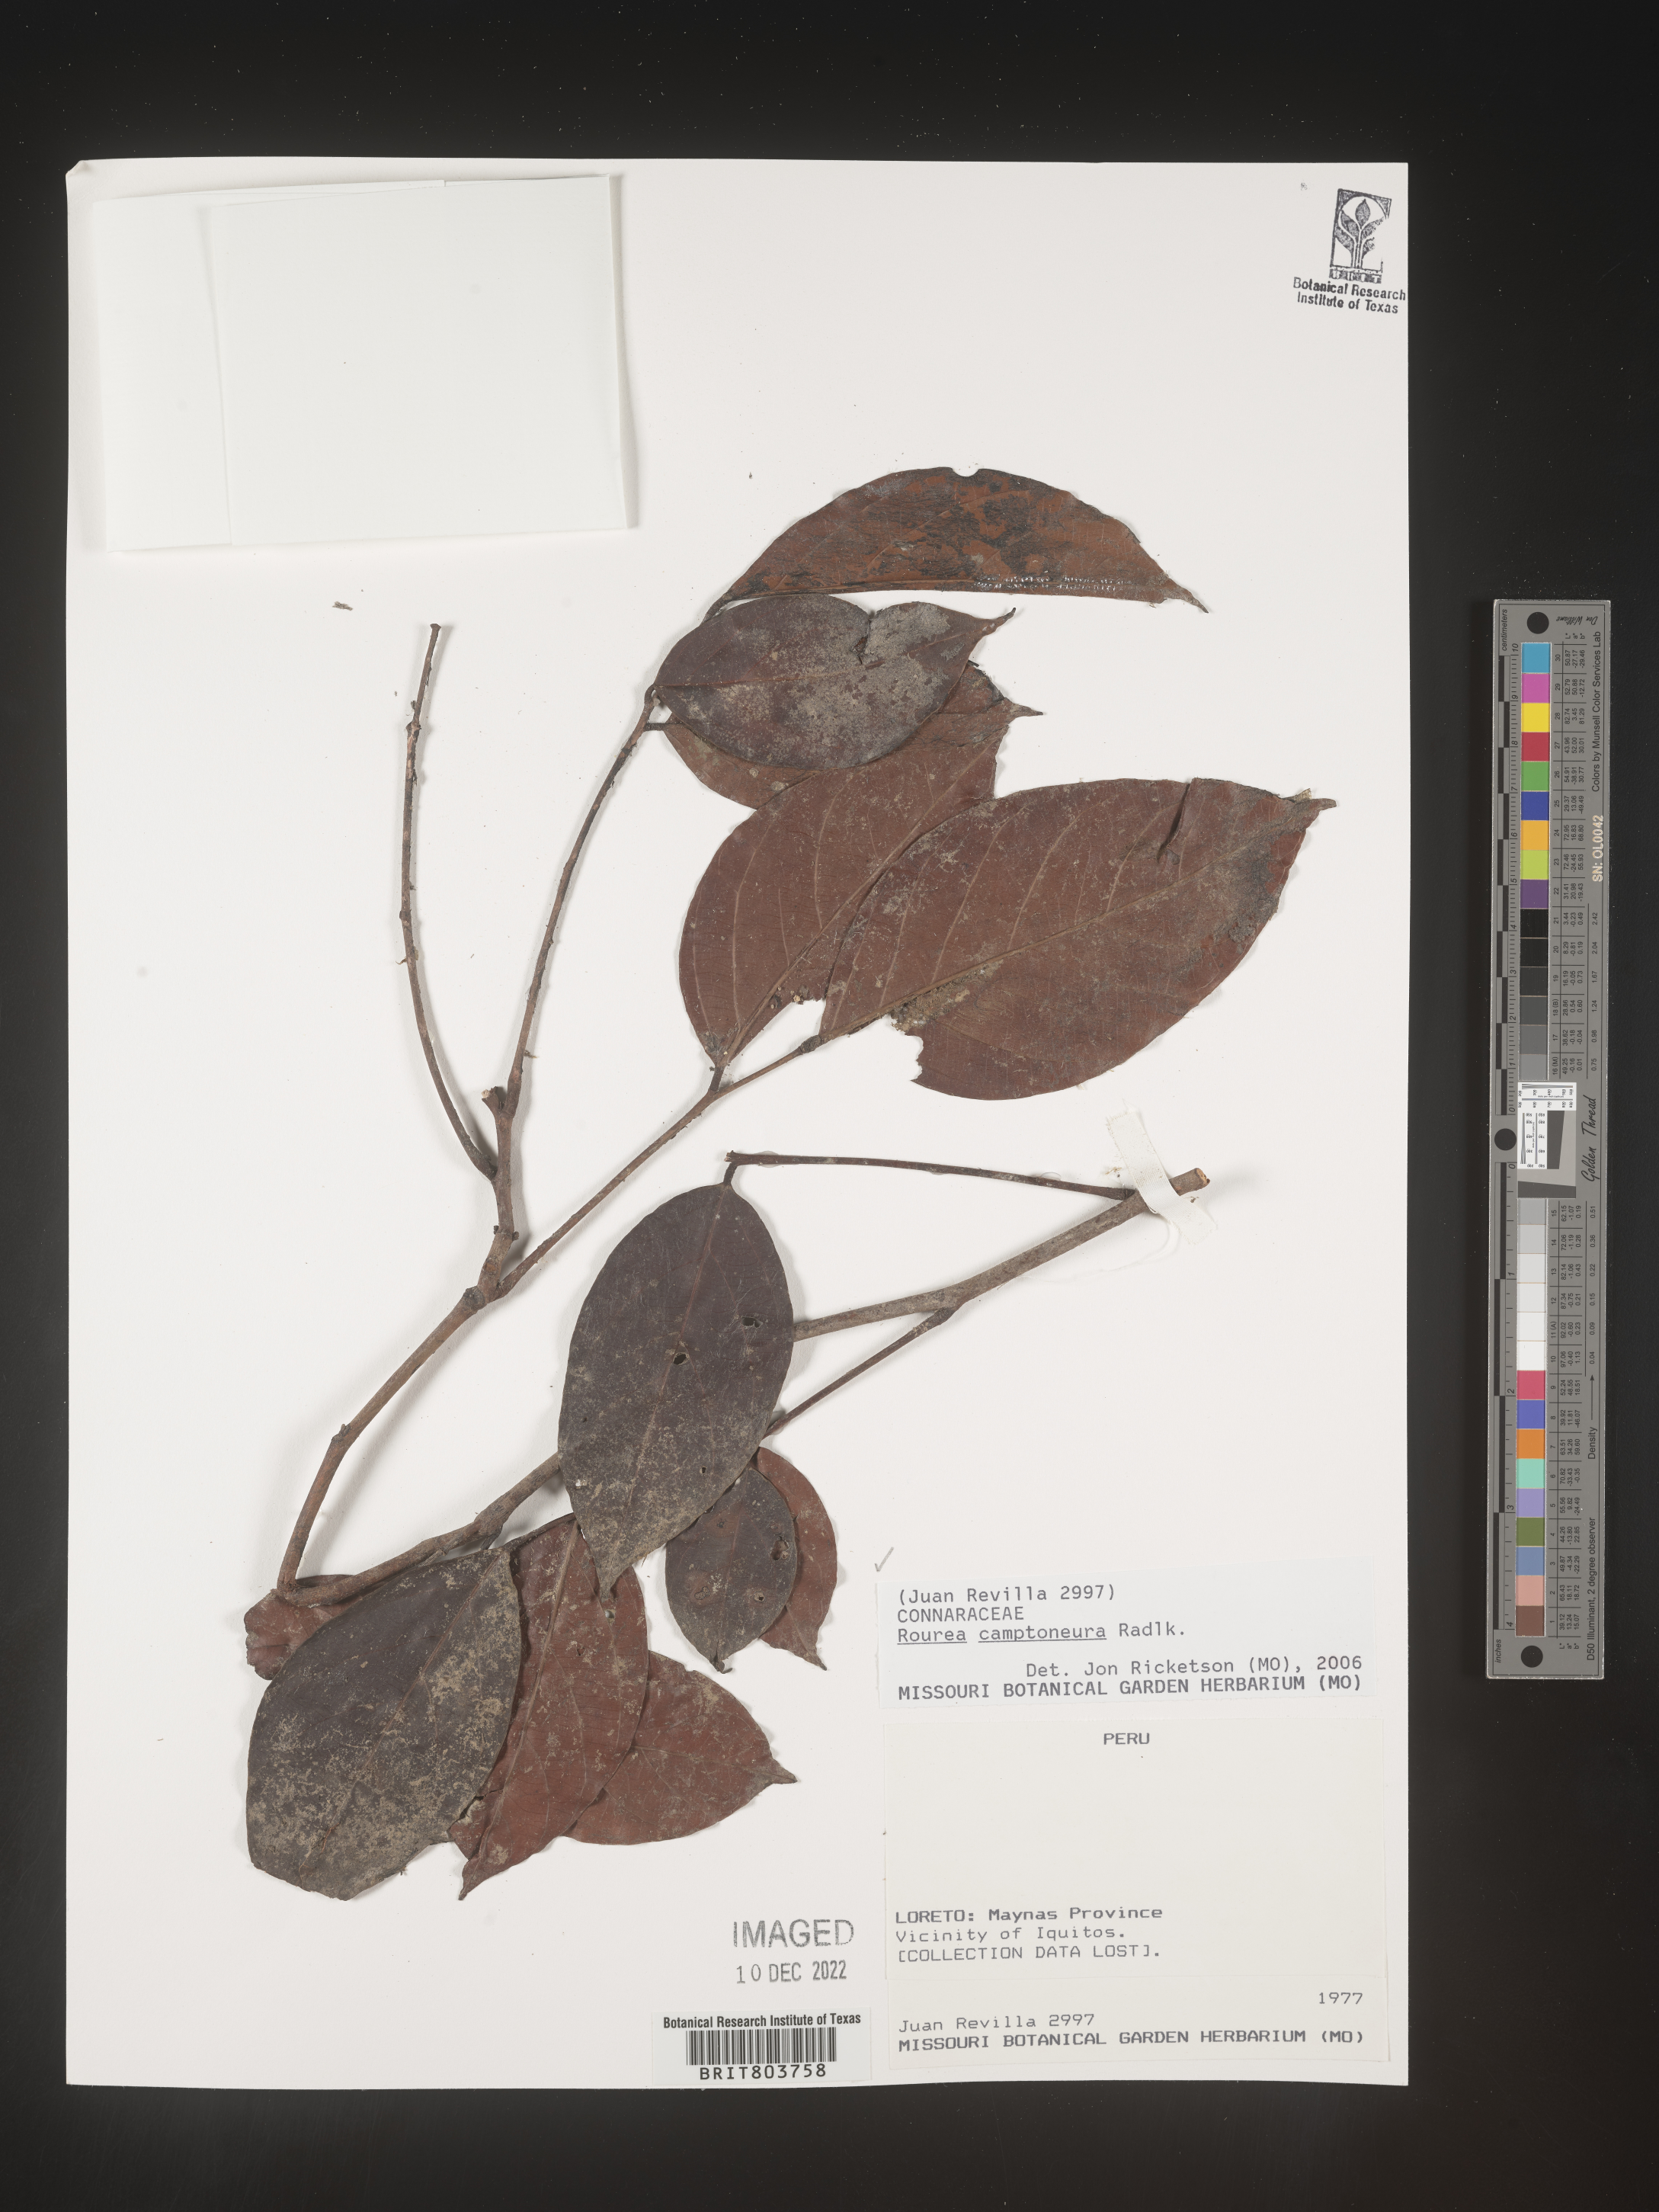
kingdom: Plantae
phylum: Tracheophyta
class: Magnoliopsida
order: Oxalidales
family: Connaraceae
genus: Rourea
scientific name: Rourea
